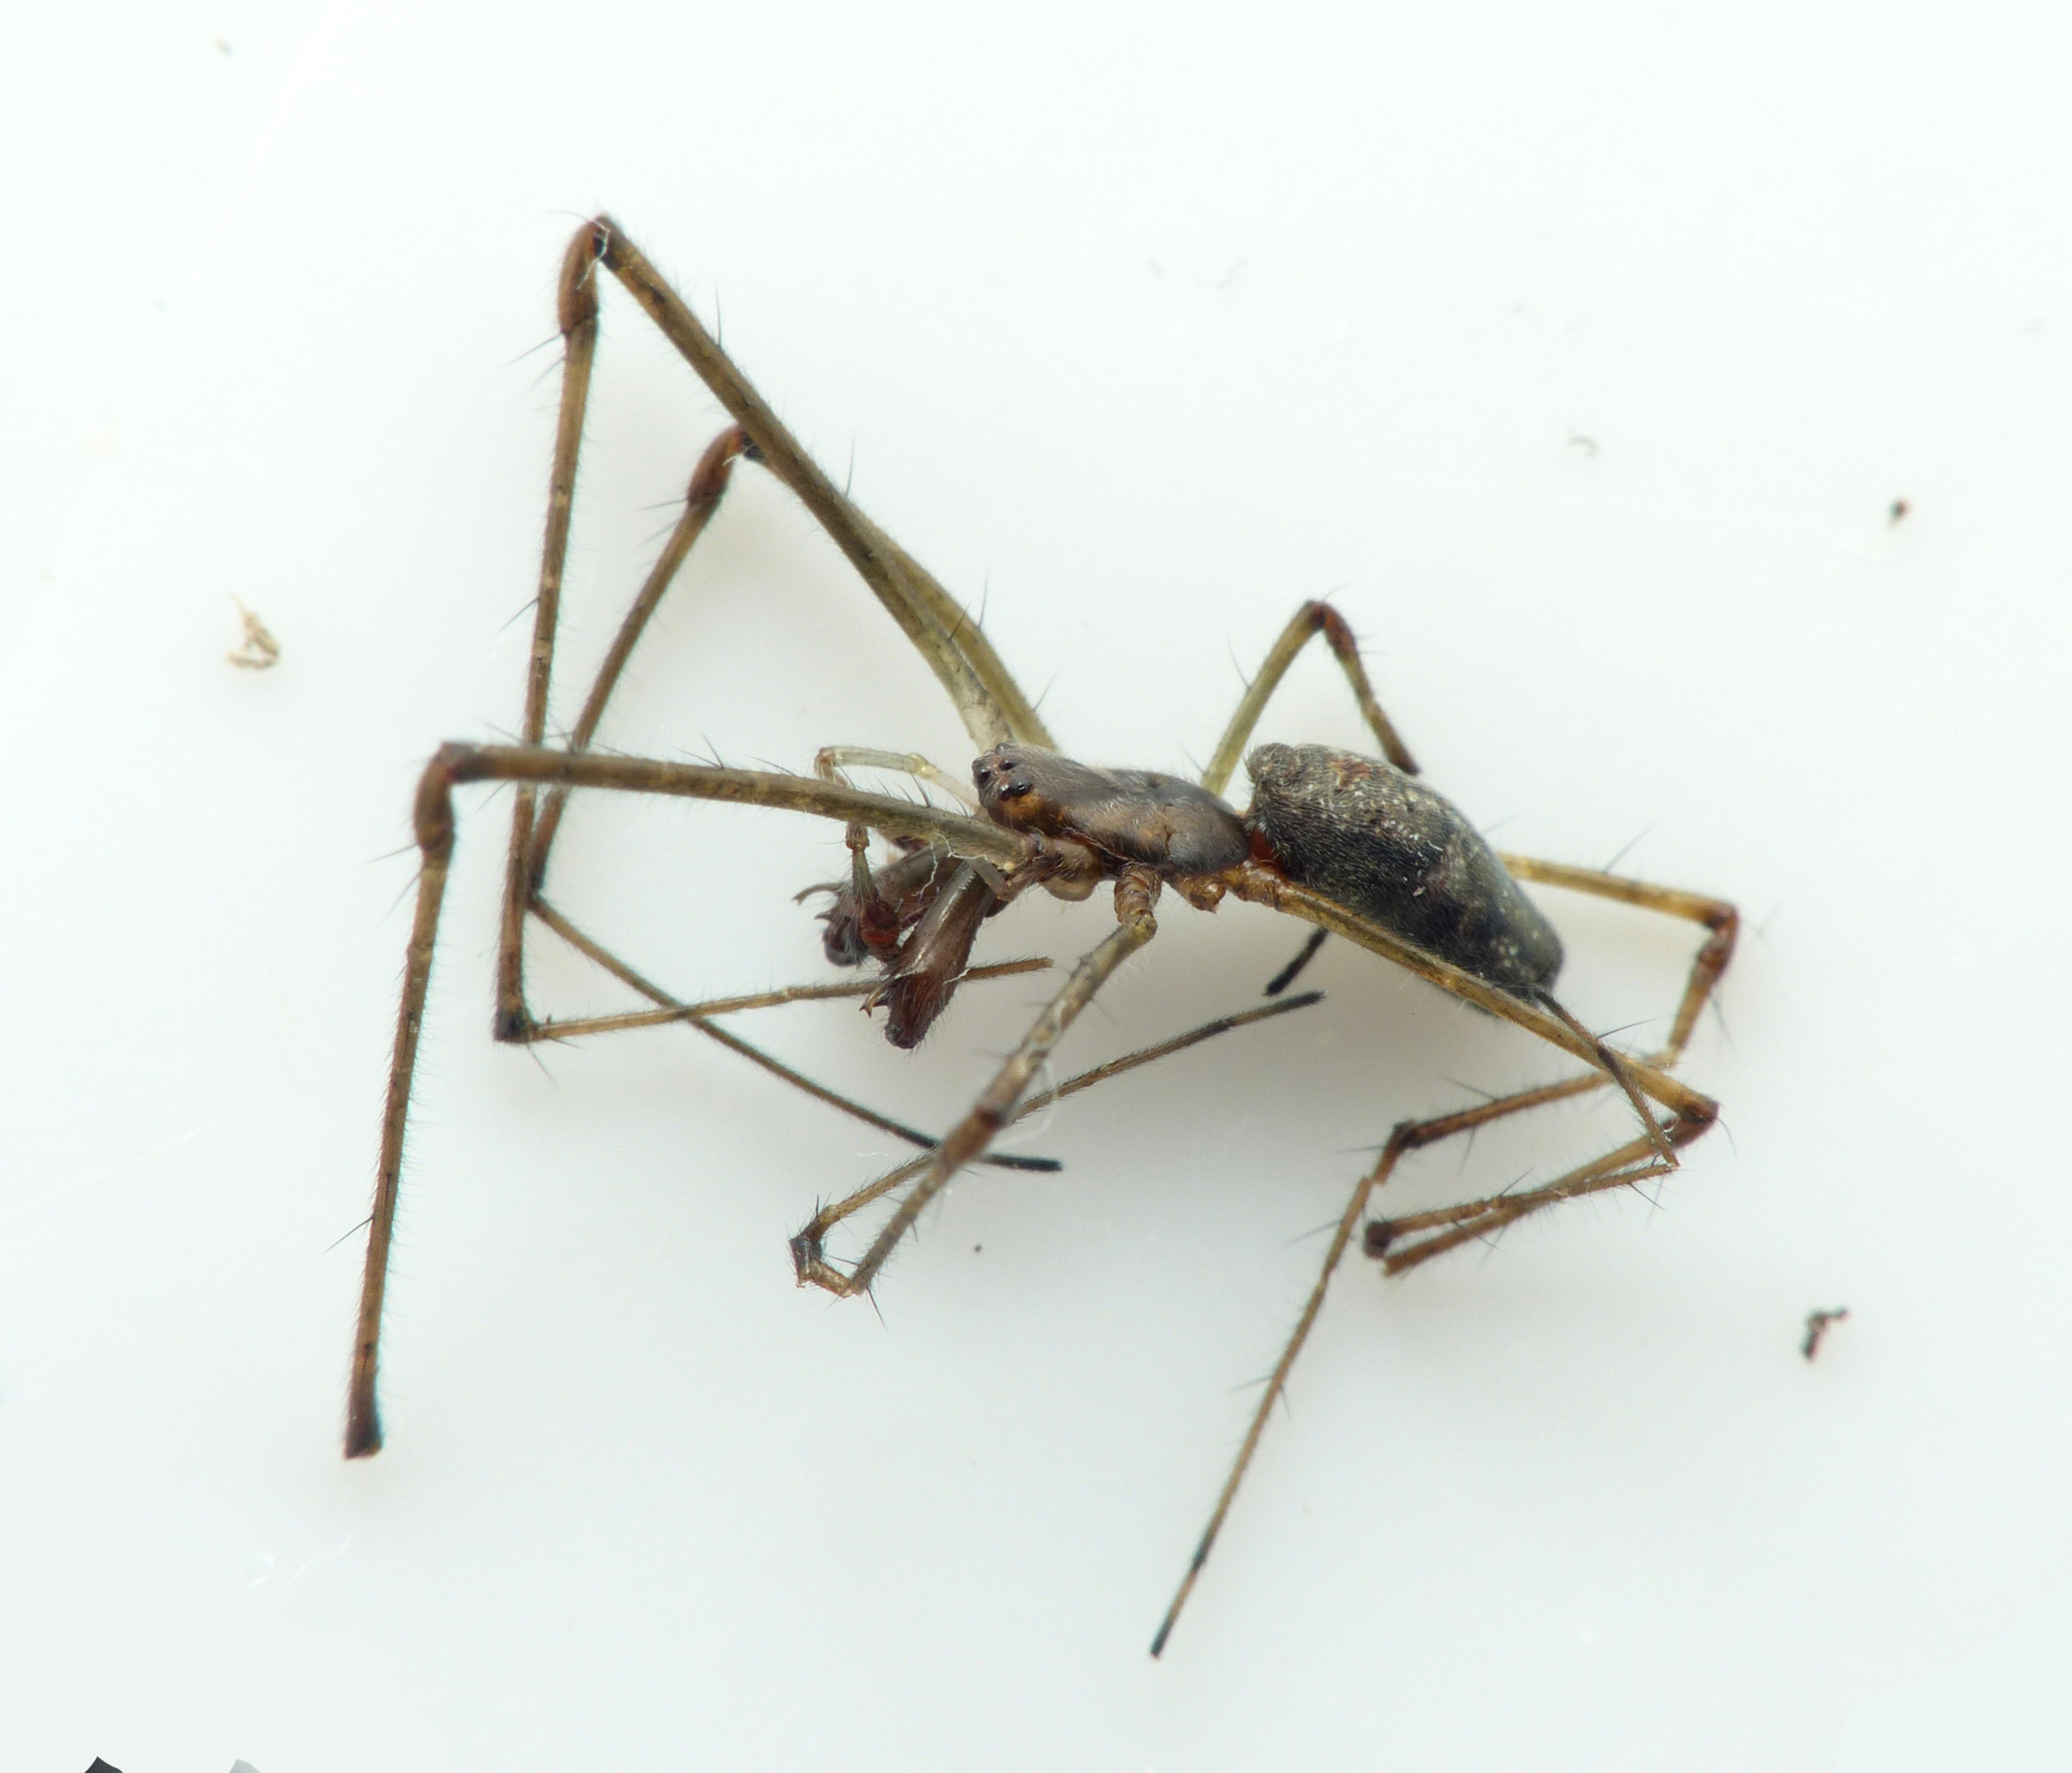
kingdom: Animalia
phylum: Arthropoda
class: Arachnida
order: Araneae
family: Tetragnathidae
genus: Tetragnatha
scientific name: Tetragnatha nigrita
